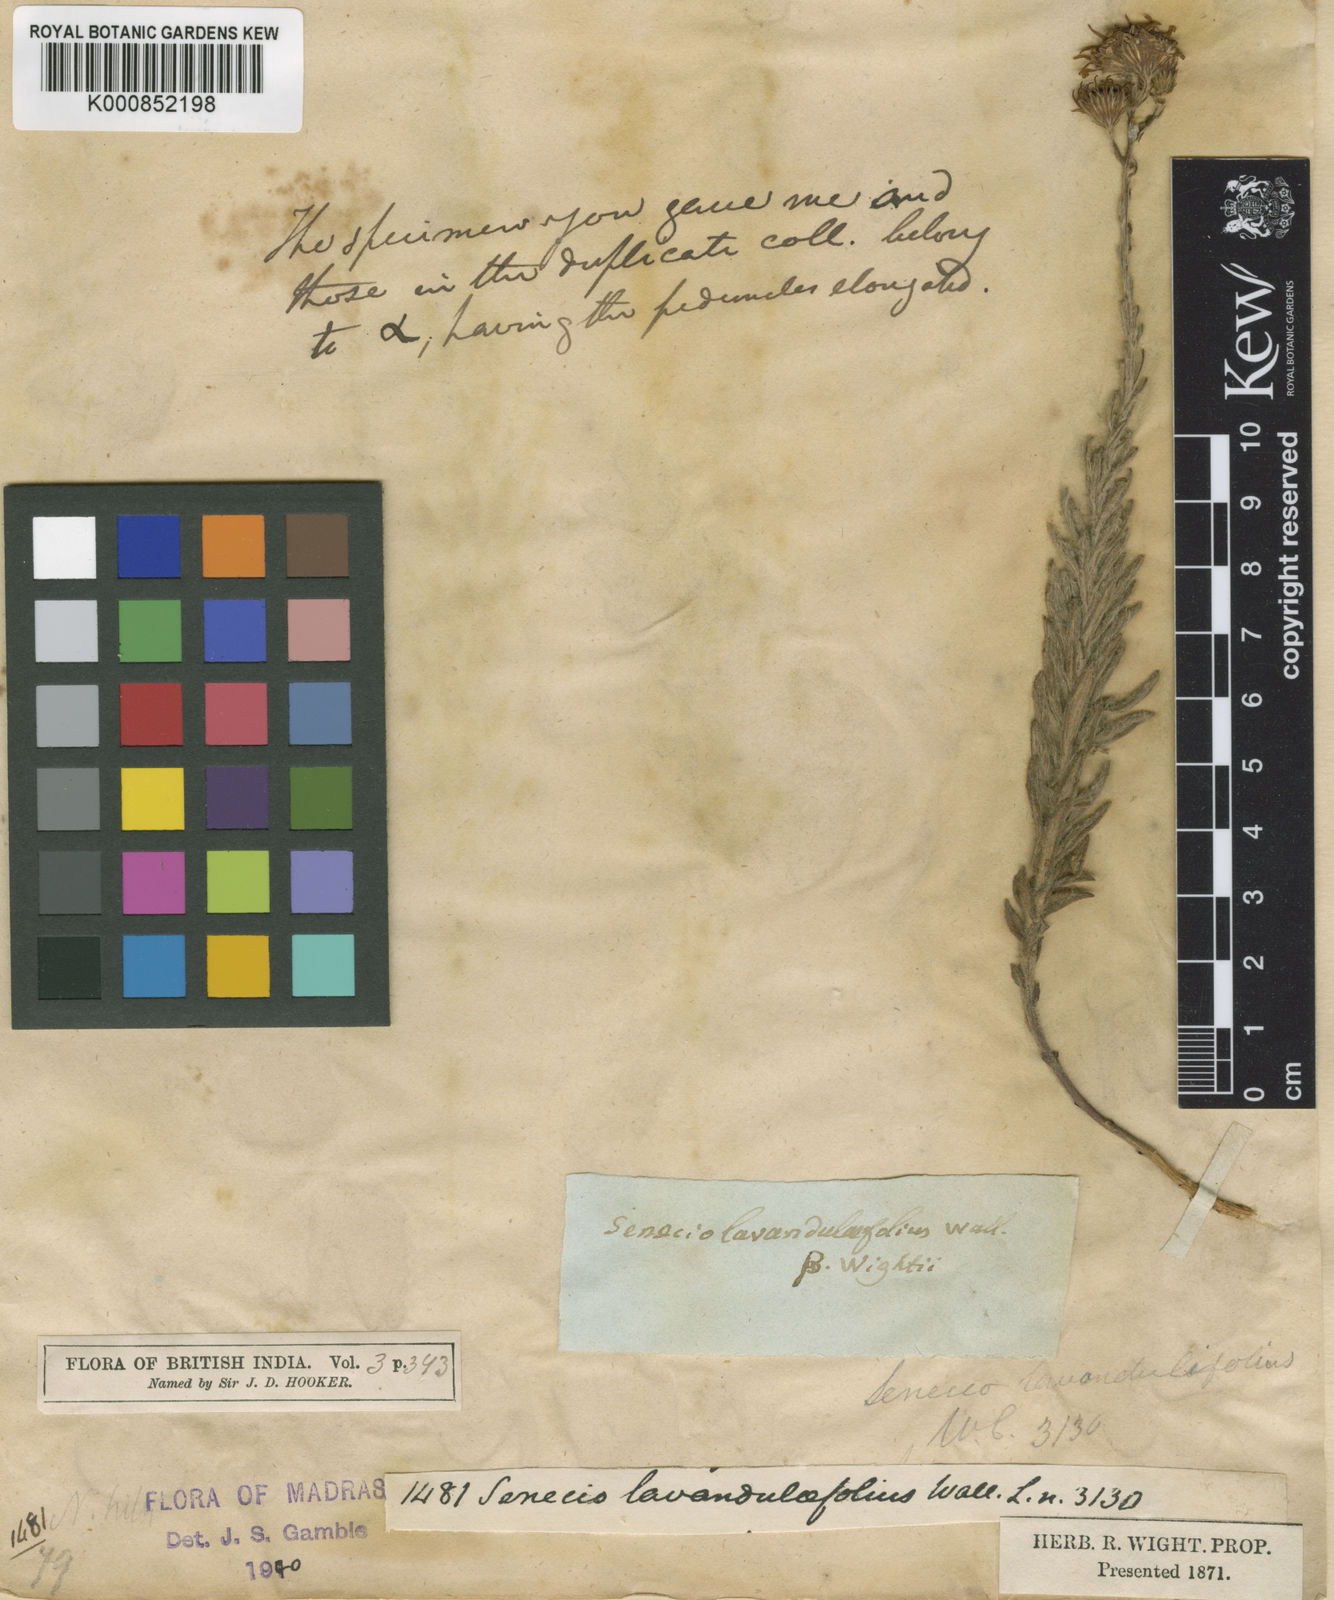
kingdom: Plantae
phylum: Tracheophyta
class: Magnoliopsida
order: Asterales
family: Asteraceae
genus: Senecio
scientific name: Senecio
